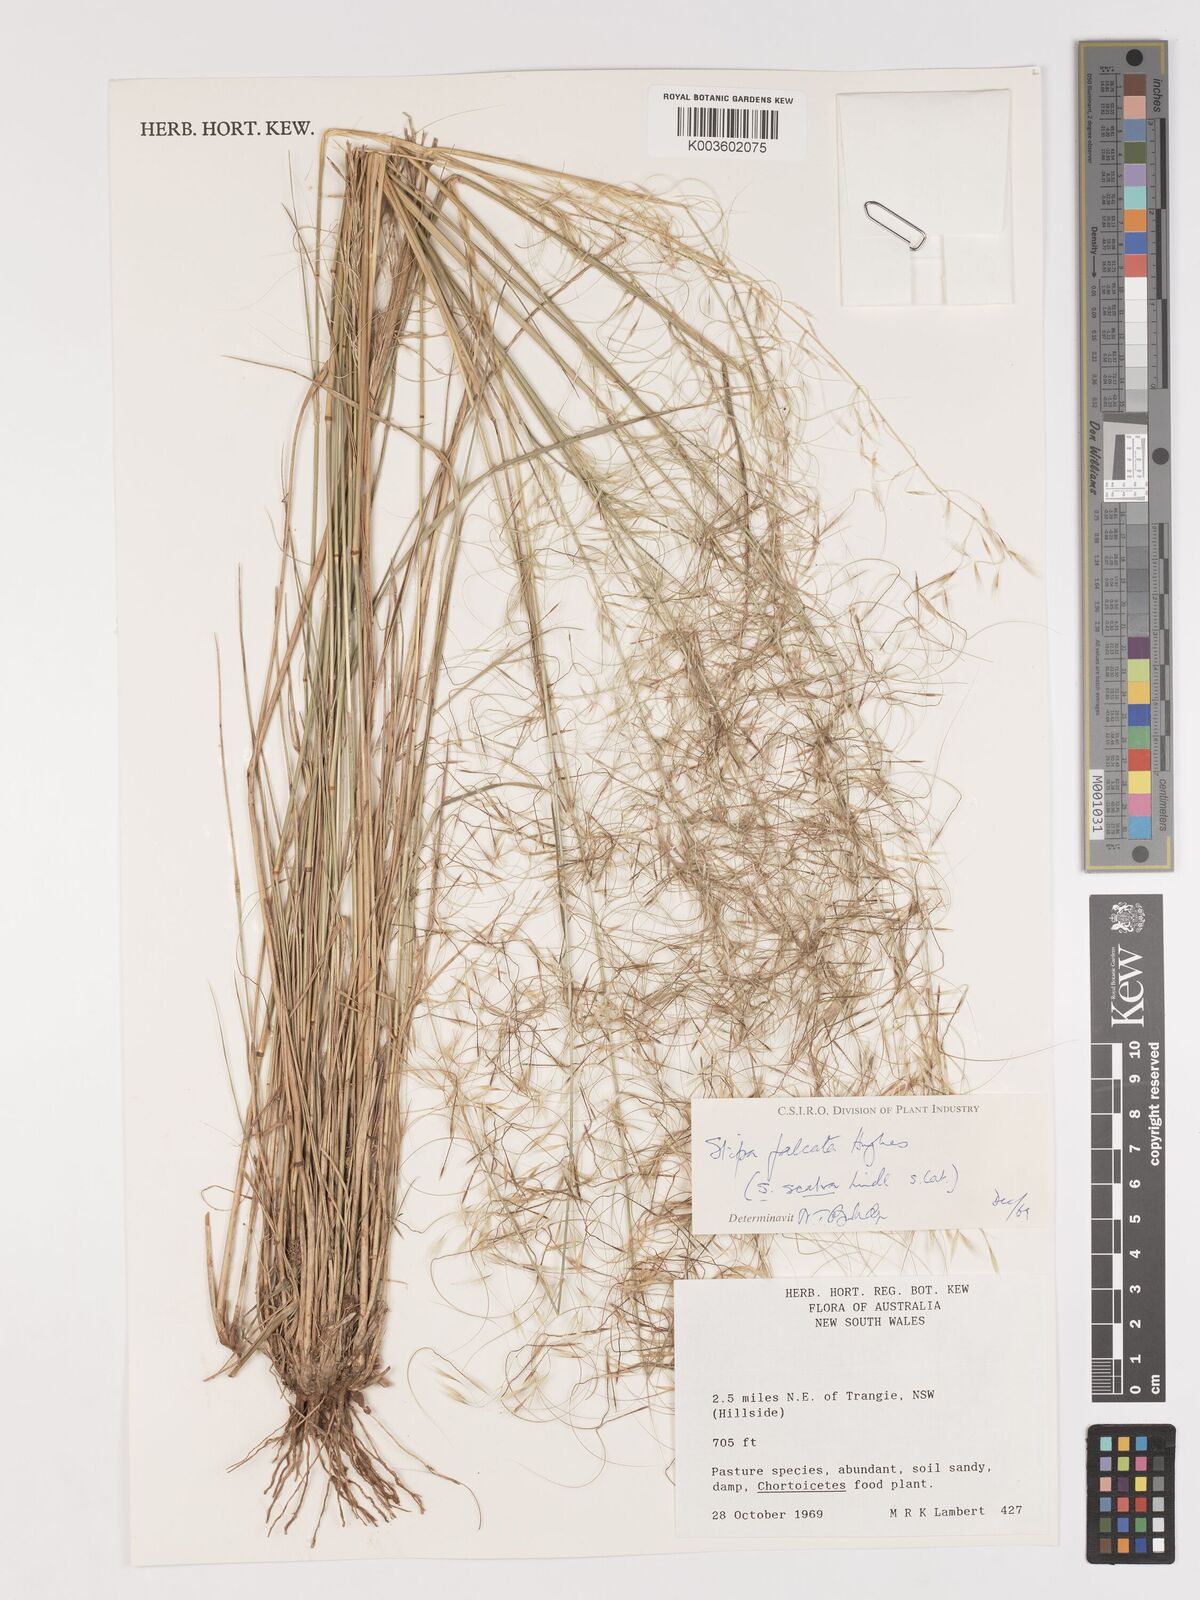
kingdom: Plantae
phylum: Tracheophyta
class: Liliopsida
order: Poales
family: Poaceae
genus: Austrostipa
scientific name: Austrostipa scabra
